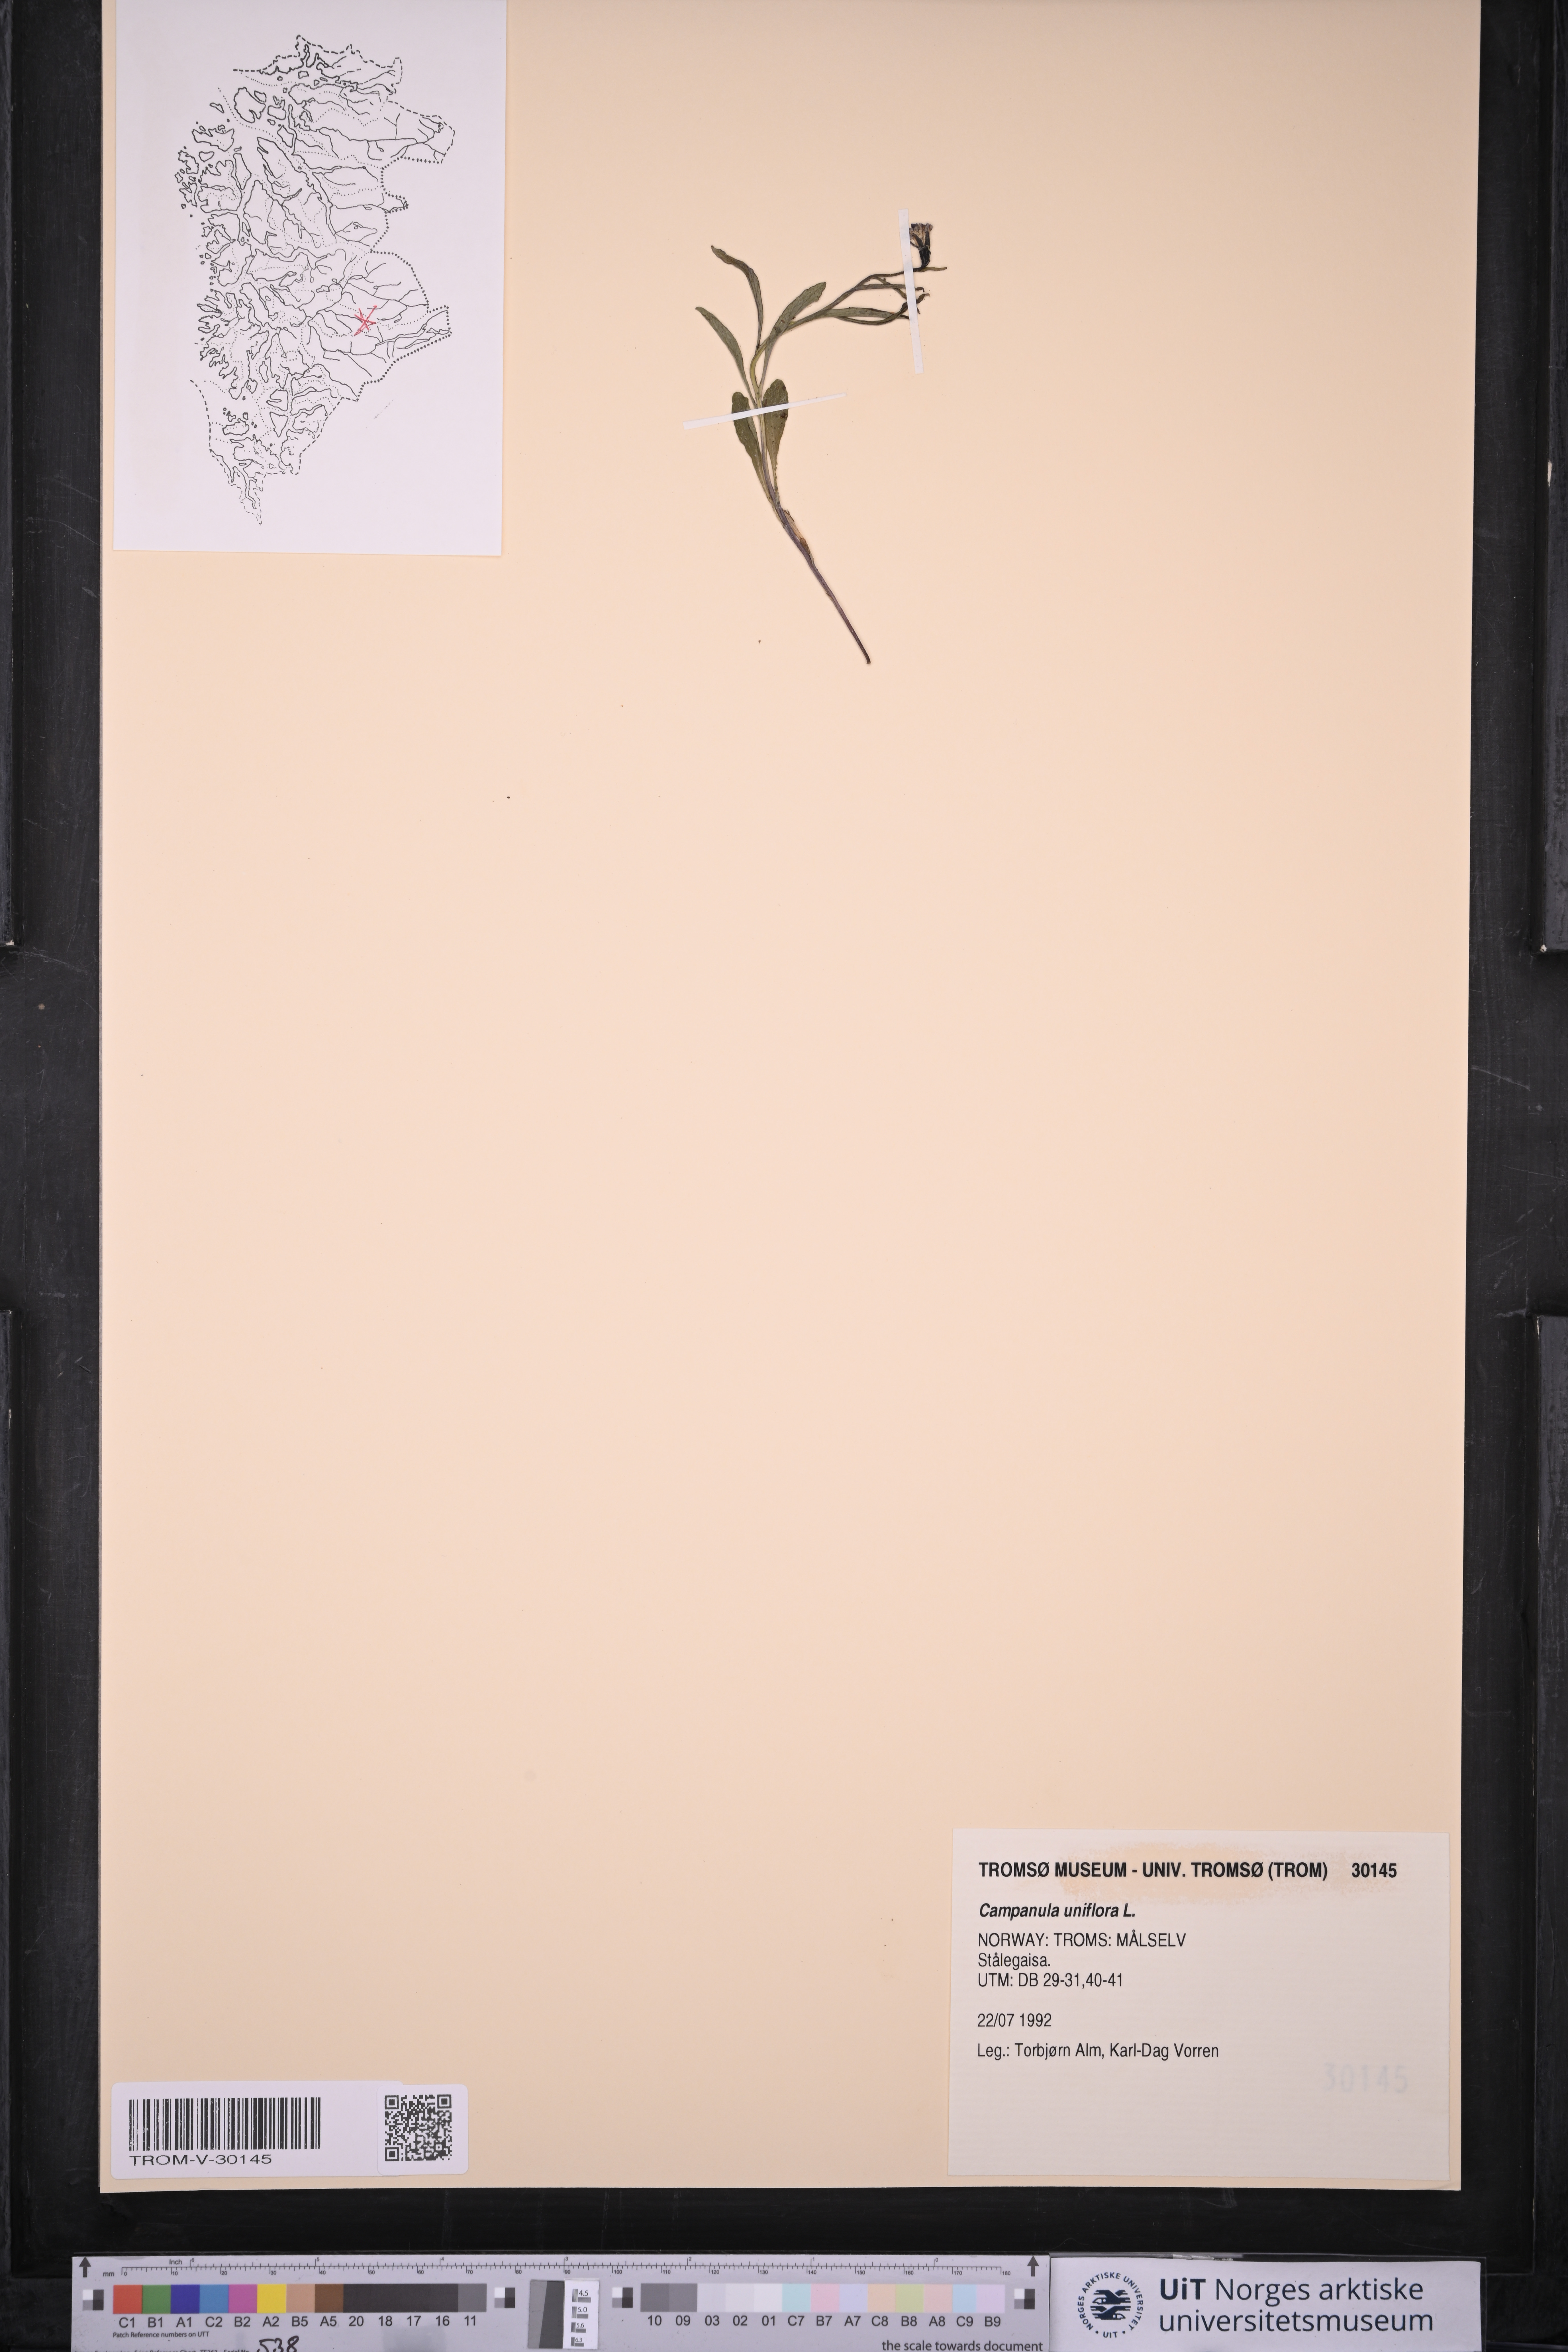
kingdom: Plantae
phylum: Tracheophyta
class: Magnoliopsida
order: Asterales
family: Campanulaceae
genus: Melanocalyx
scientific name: Melanocalyx uniflora
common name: Alpine harebell
